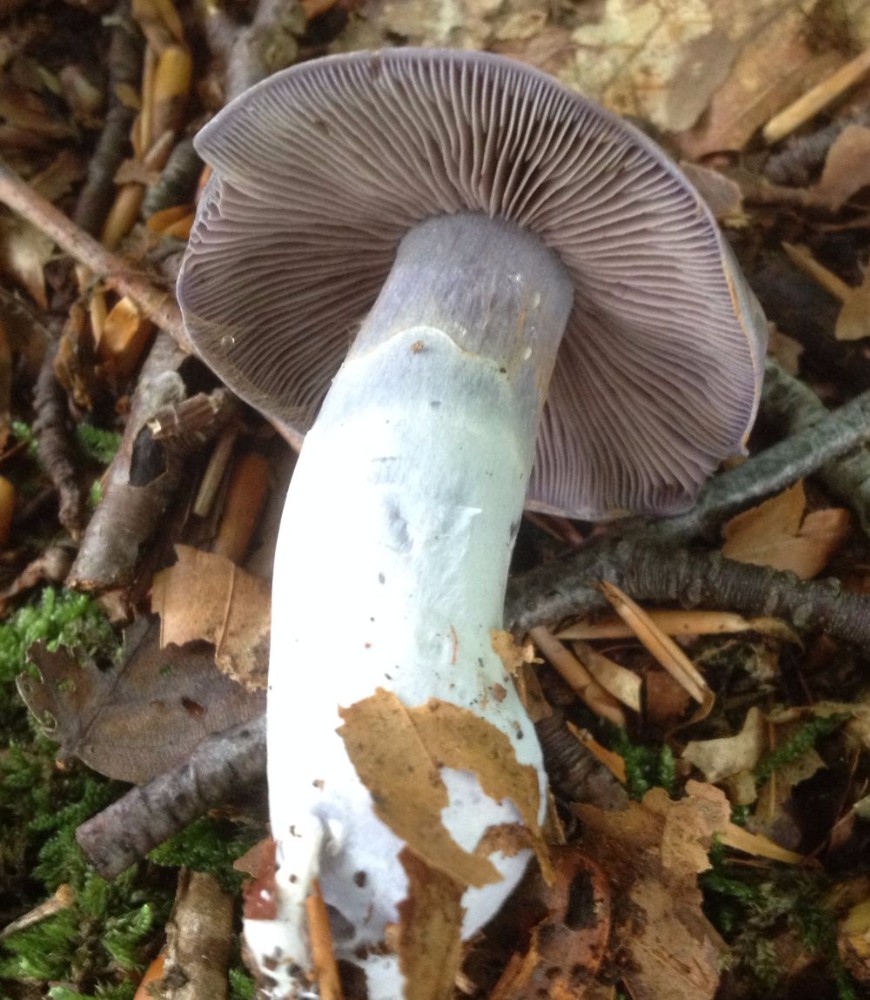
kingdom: Fungi
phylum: Basidiomycota
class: Agaricomycetes
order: Agaricales
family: Cortinariaceae
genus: Cortinarius
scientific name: Cortinarius alboviolaceus
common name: lysviolet slørhat
